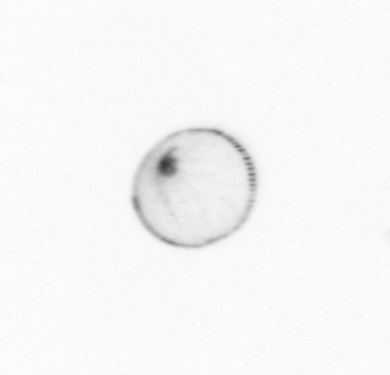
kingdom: Chromista
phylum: Myzozoa
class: Dinophyceae
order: Noctilucales
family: Noctilucaceae
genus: Noctiluca
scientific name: Noctiluca scintillans
